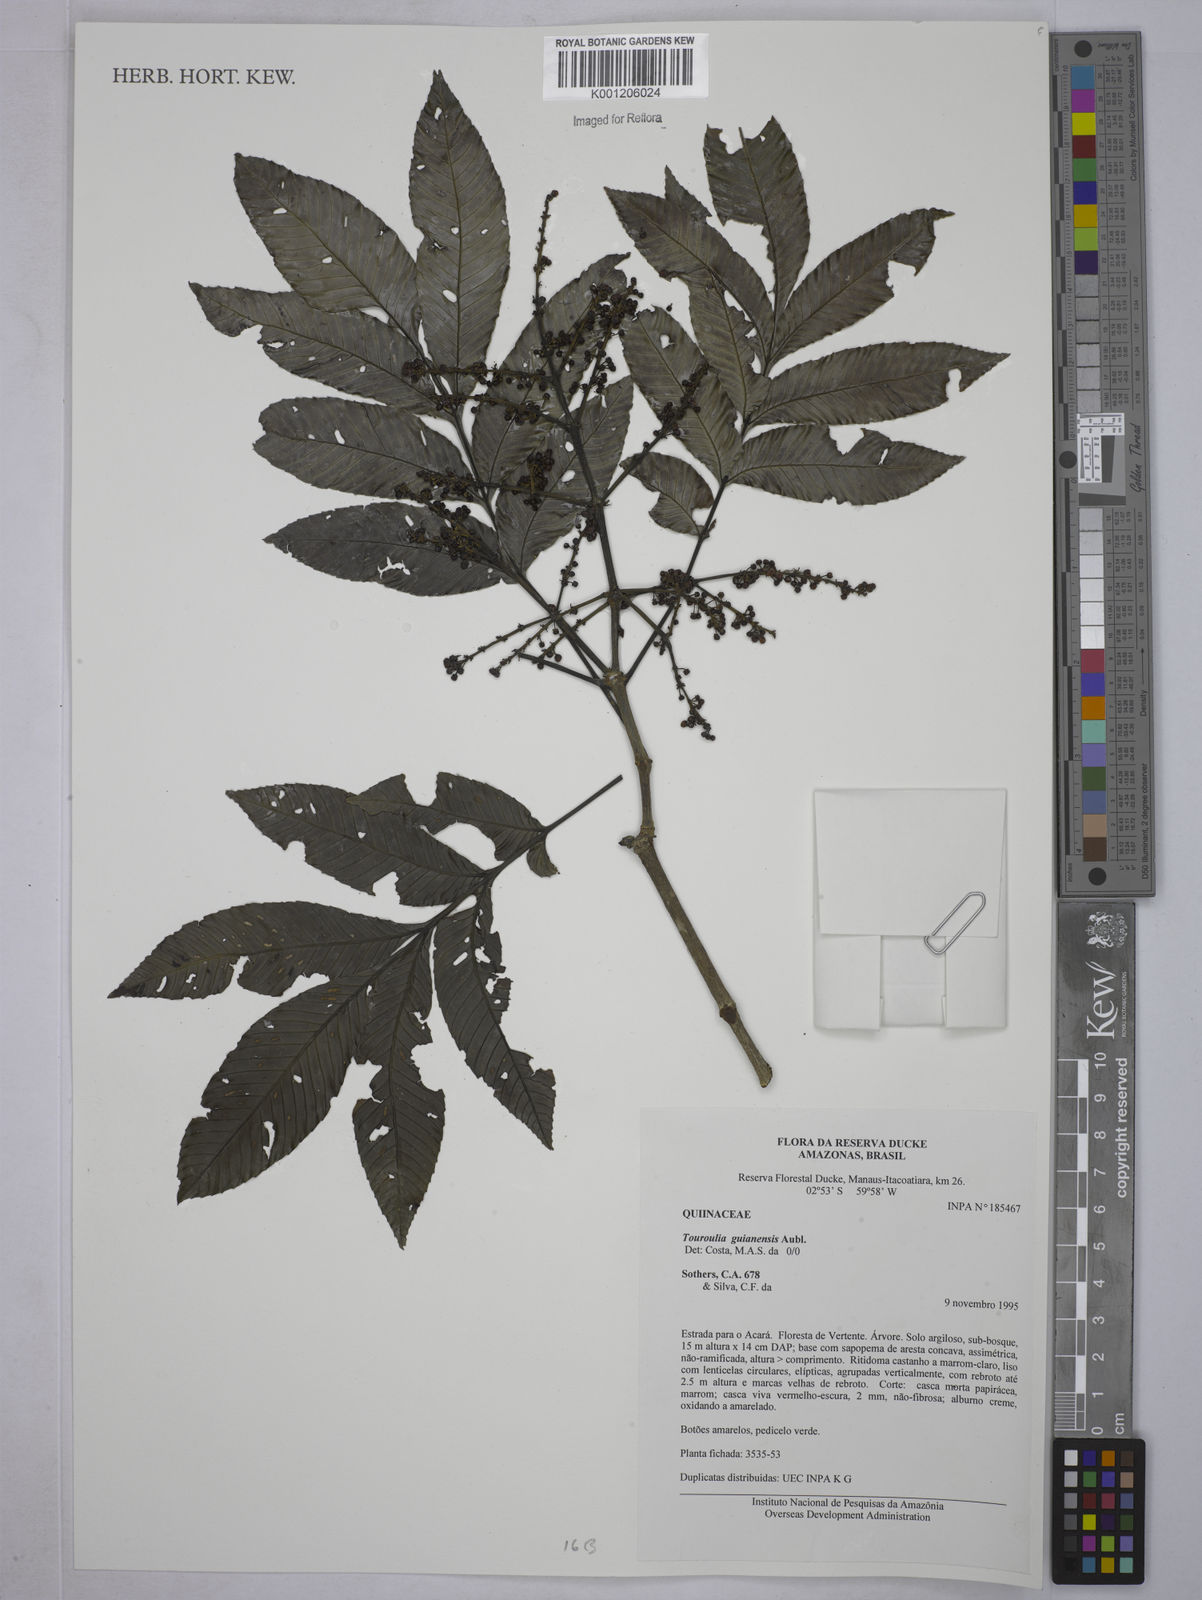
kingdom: Plantae
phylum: Tracheophyta
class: Magnoliopsida
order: Malpighiales
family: Quiinaceae
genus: Touroulia
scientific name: Touroulia guianensis
